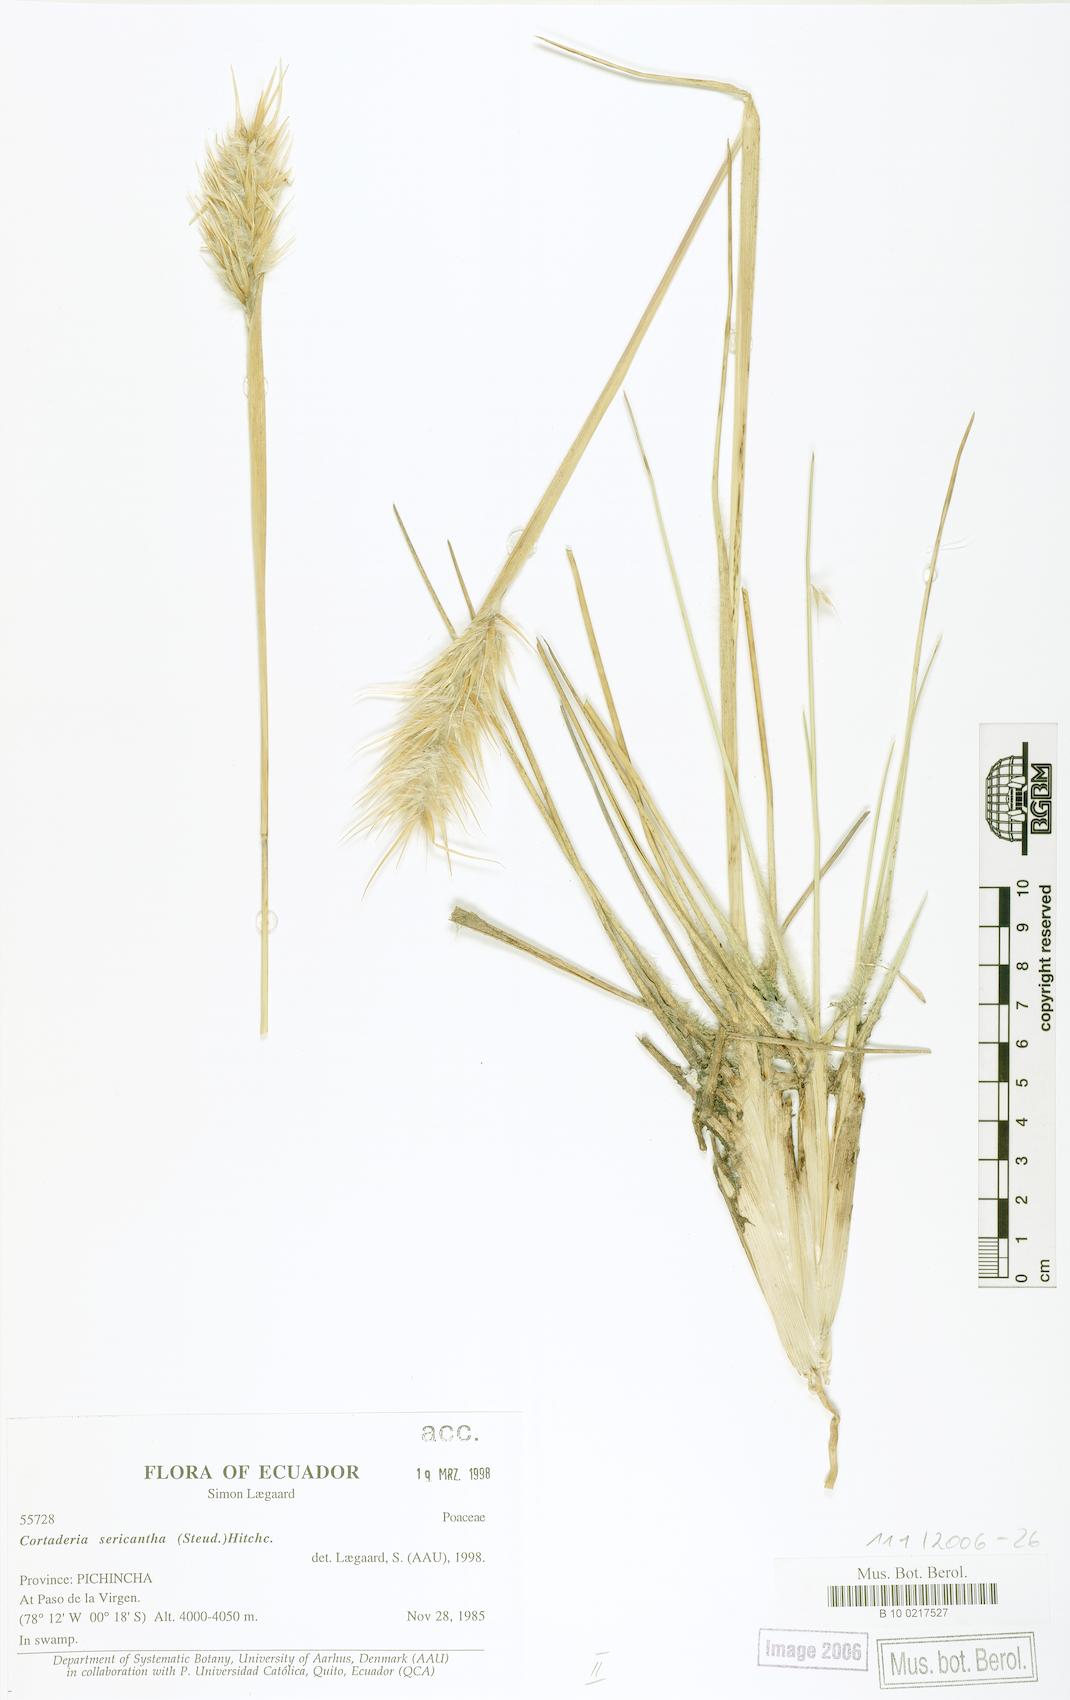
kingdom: Plantae
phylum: Tracheophyta
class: Liliopsida
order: Poales
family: Poaceae
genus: Cortaderia
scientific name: Cortaderia sericantha
